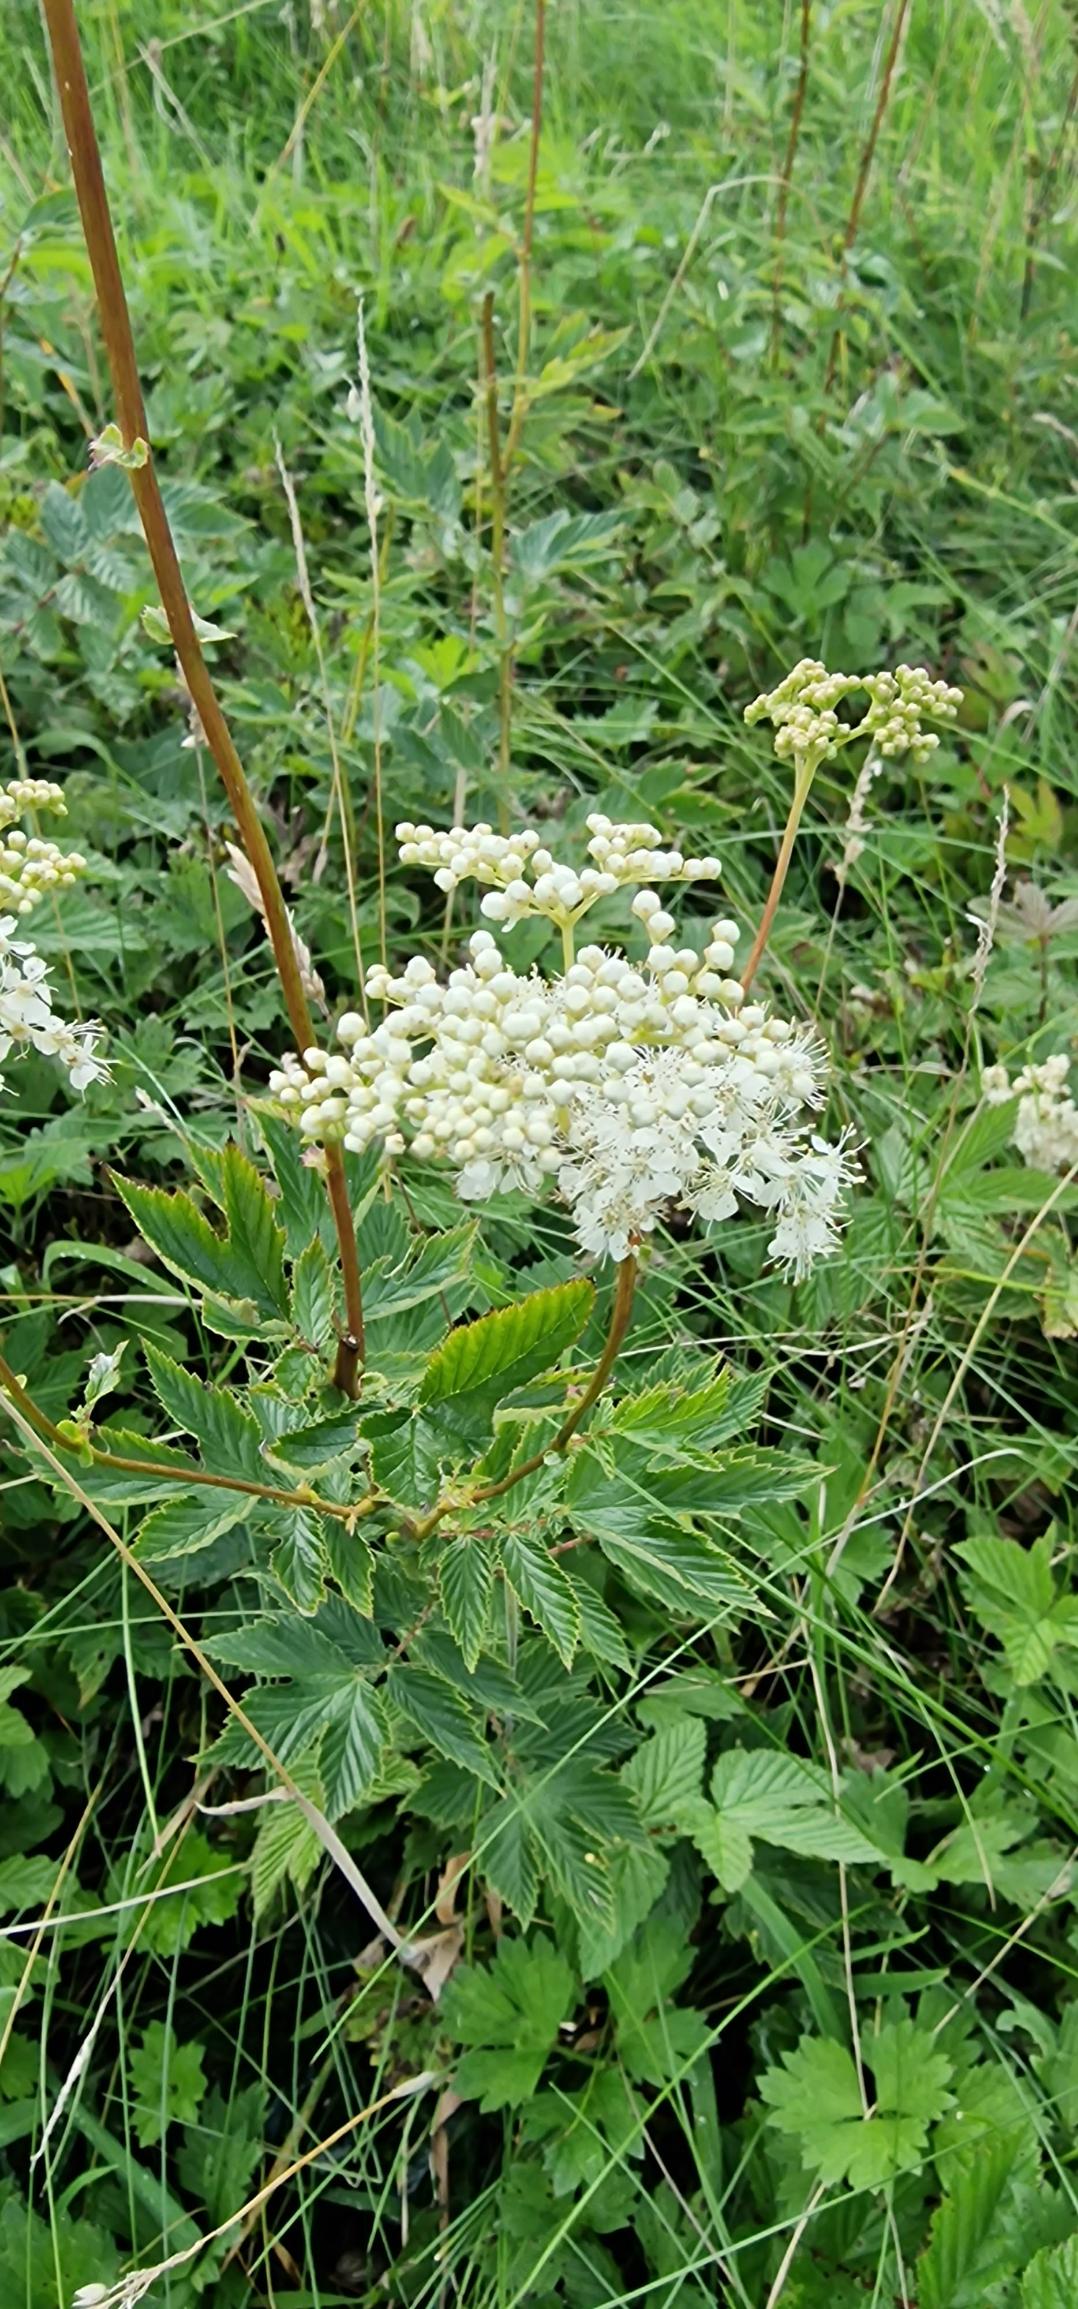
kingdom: Plantae
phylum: Tracheophyta
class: Magnoliopsida
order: Rosales
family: Rosaceae
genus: Filipendula
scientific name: Filipendula ulmaria
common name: Almindelig mjødurt
